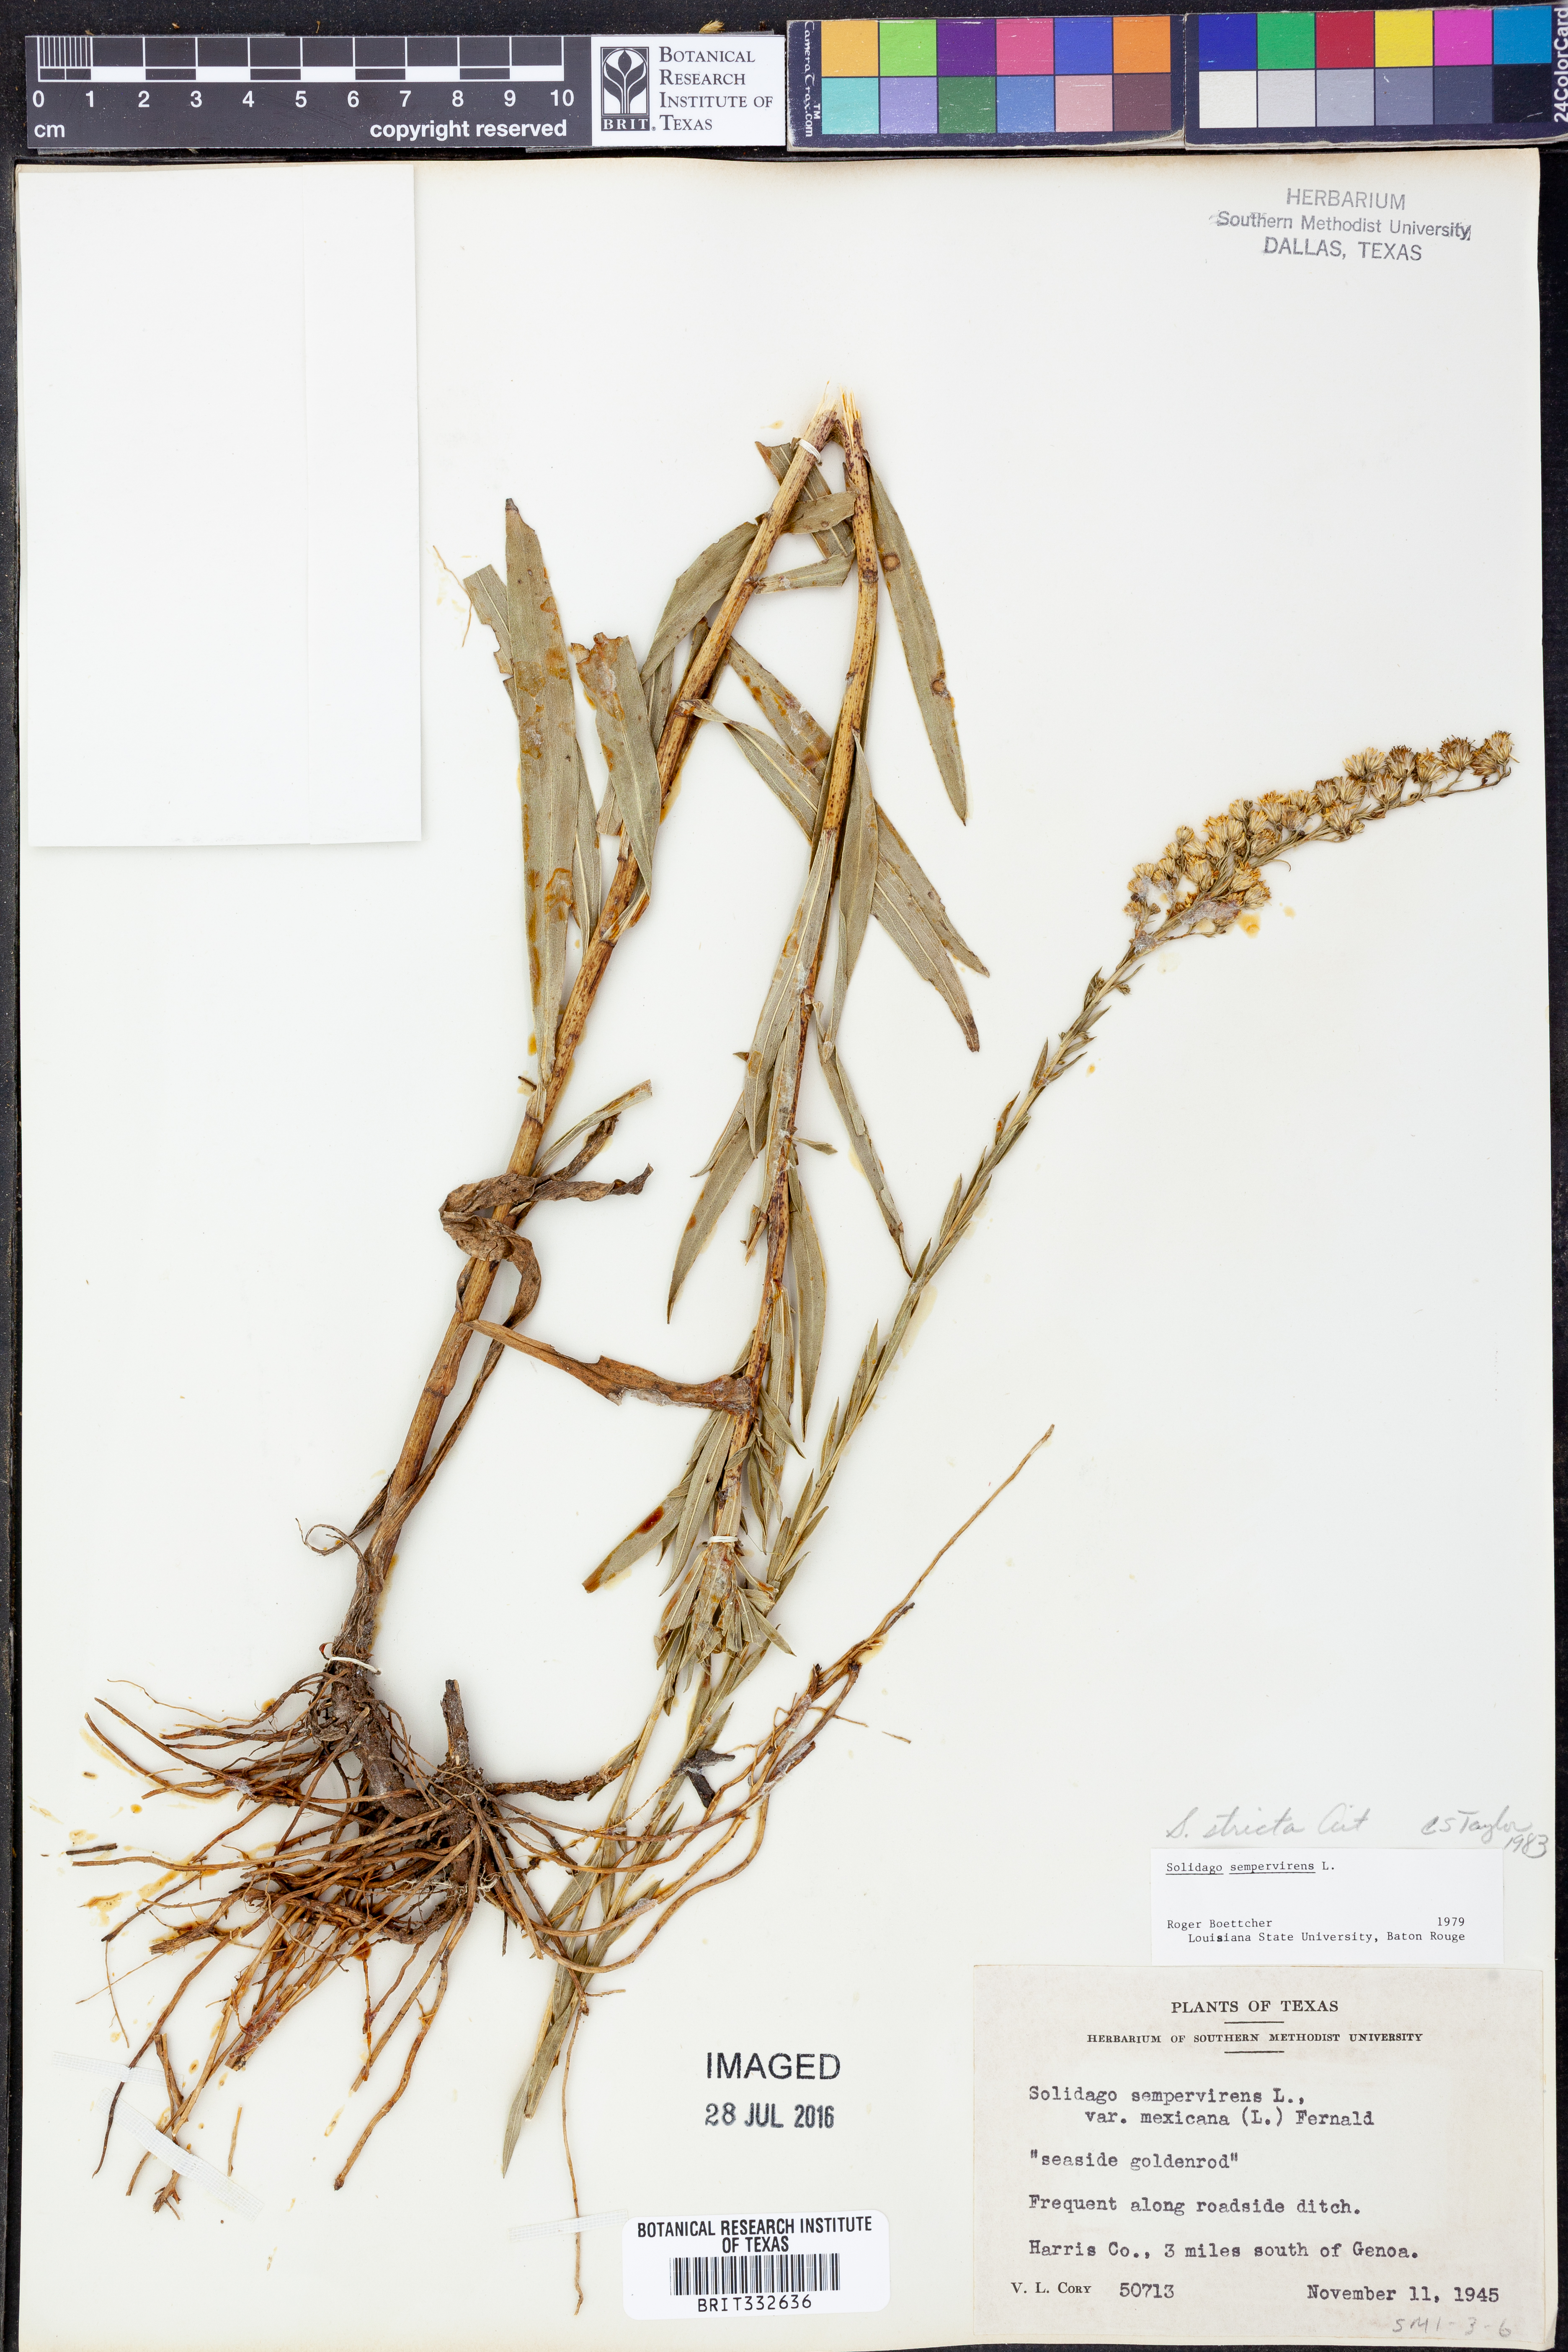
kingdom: Plantae
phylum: Tracheophyta
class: Magnoliopsida
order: Asterales
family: Asteraceae
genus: Solidago
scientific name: Solidago stricta
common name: Pine barren bog goldenrod
